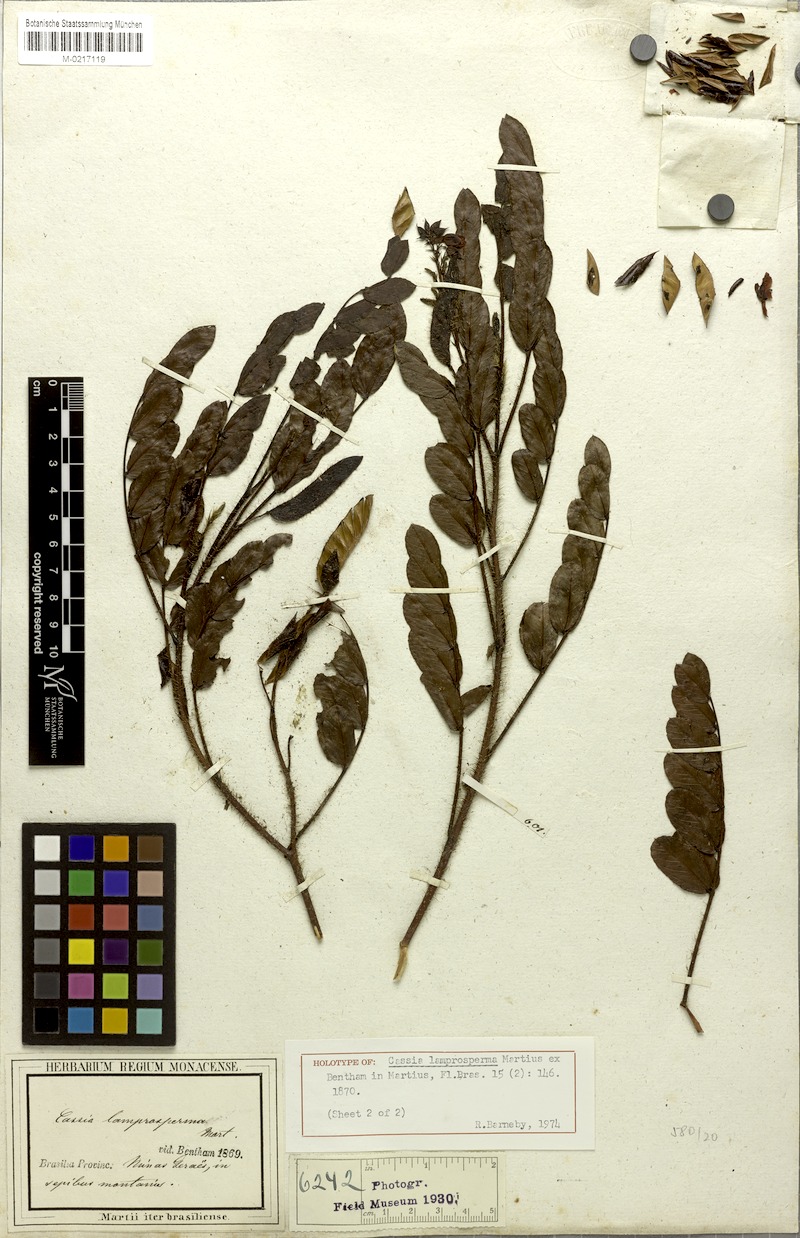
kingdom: Plantae
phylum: Tracheophyta
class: Magnoliopsida
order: Fabales
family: Fabaceae
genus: Chamaecrista
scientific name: Chamaecrista lamprosperma
